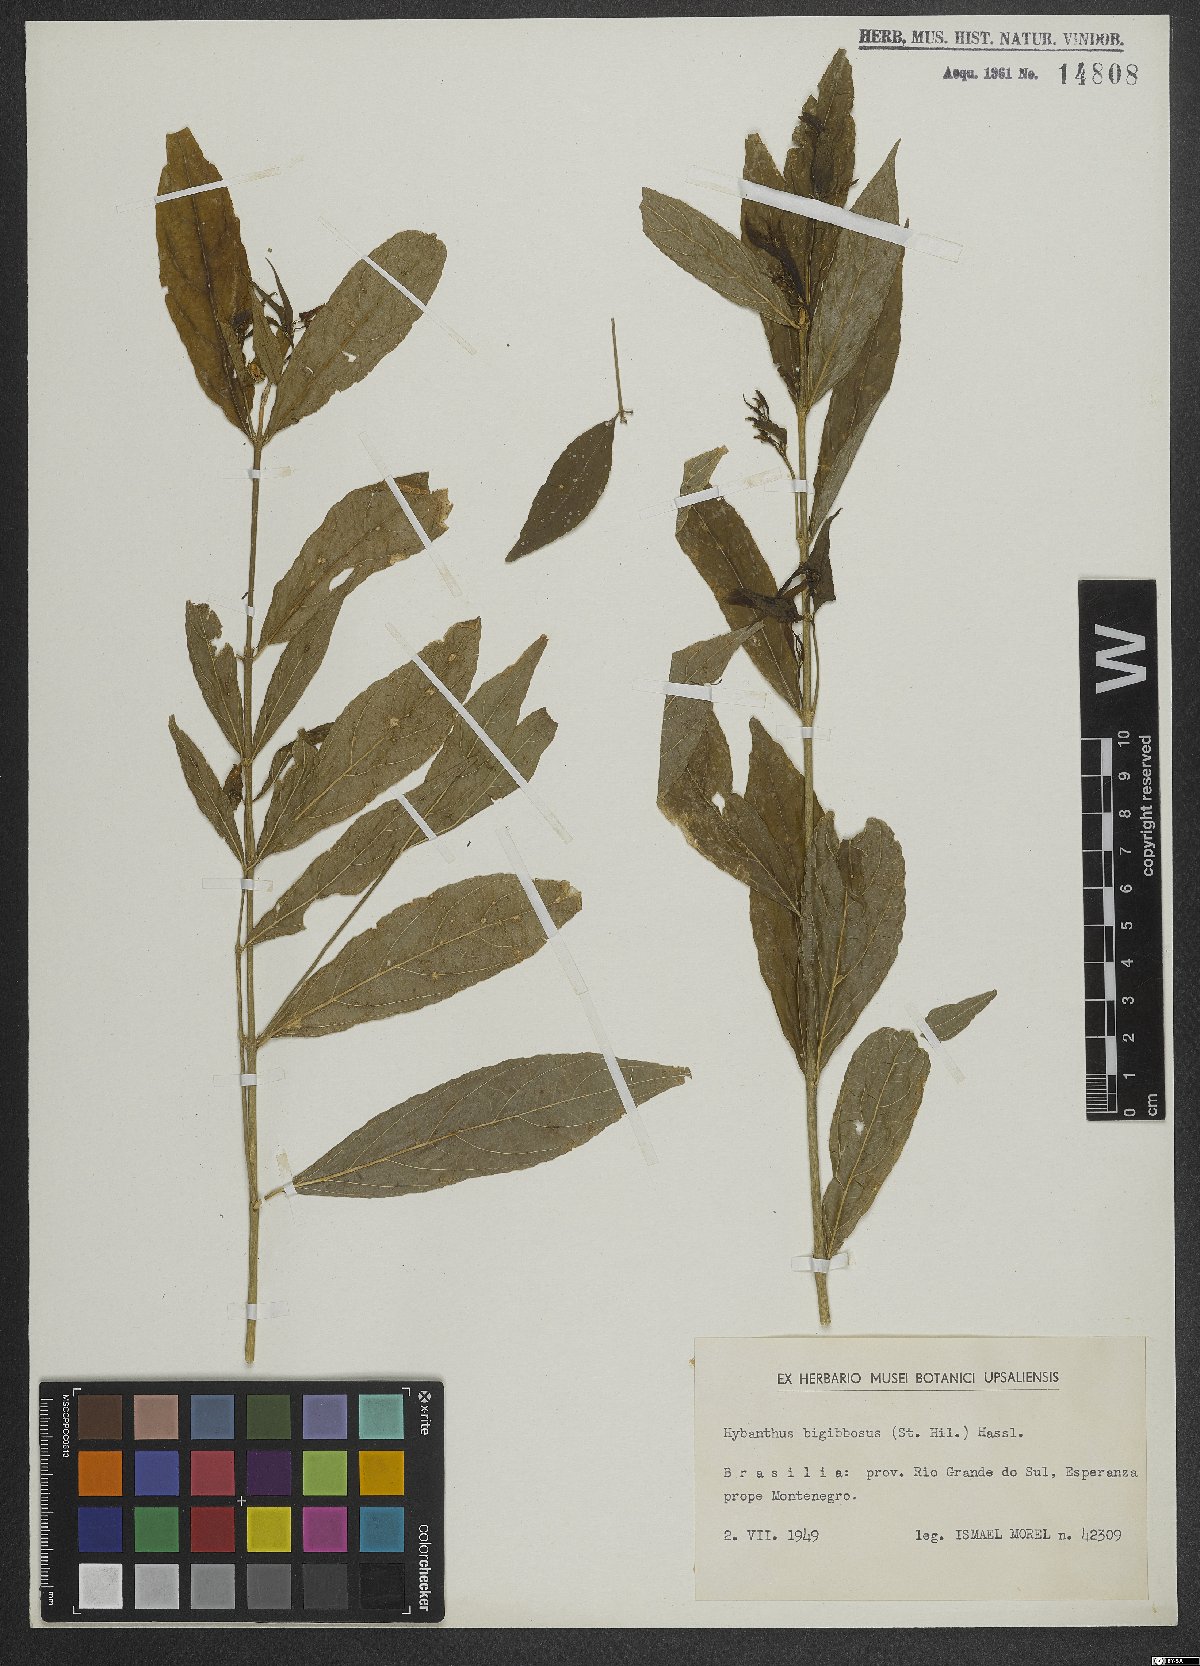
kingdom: Plantae
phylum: Tracheophyta
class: Magnoliopsida
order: Malpighiales
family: Violaceae
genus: Pombalia
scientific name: Pombalia bigibbosa
